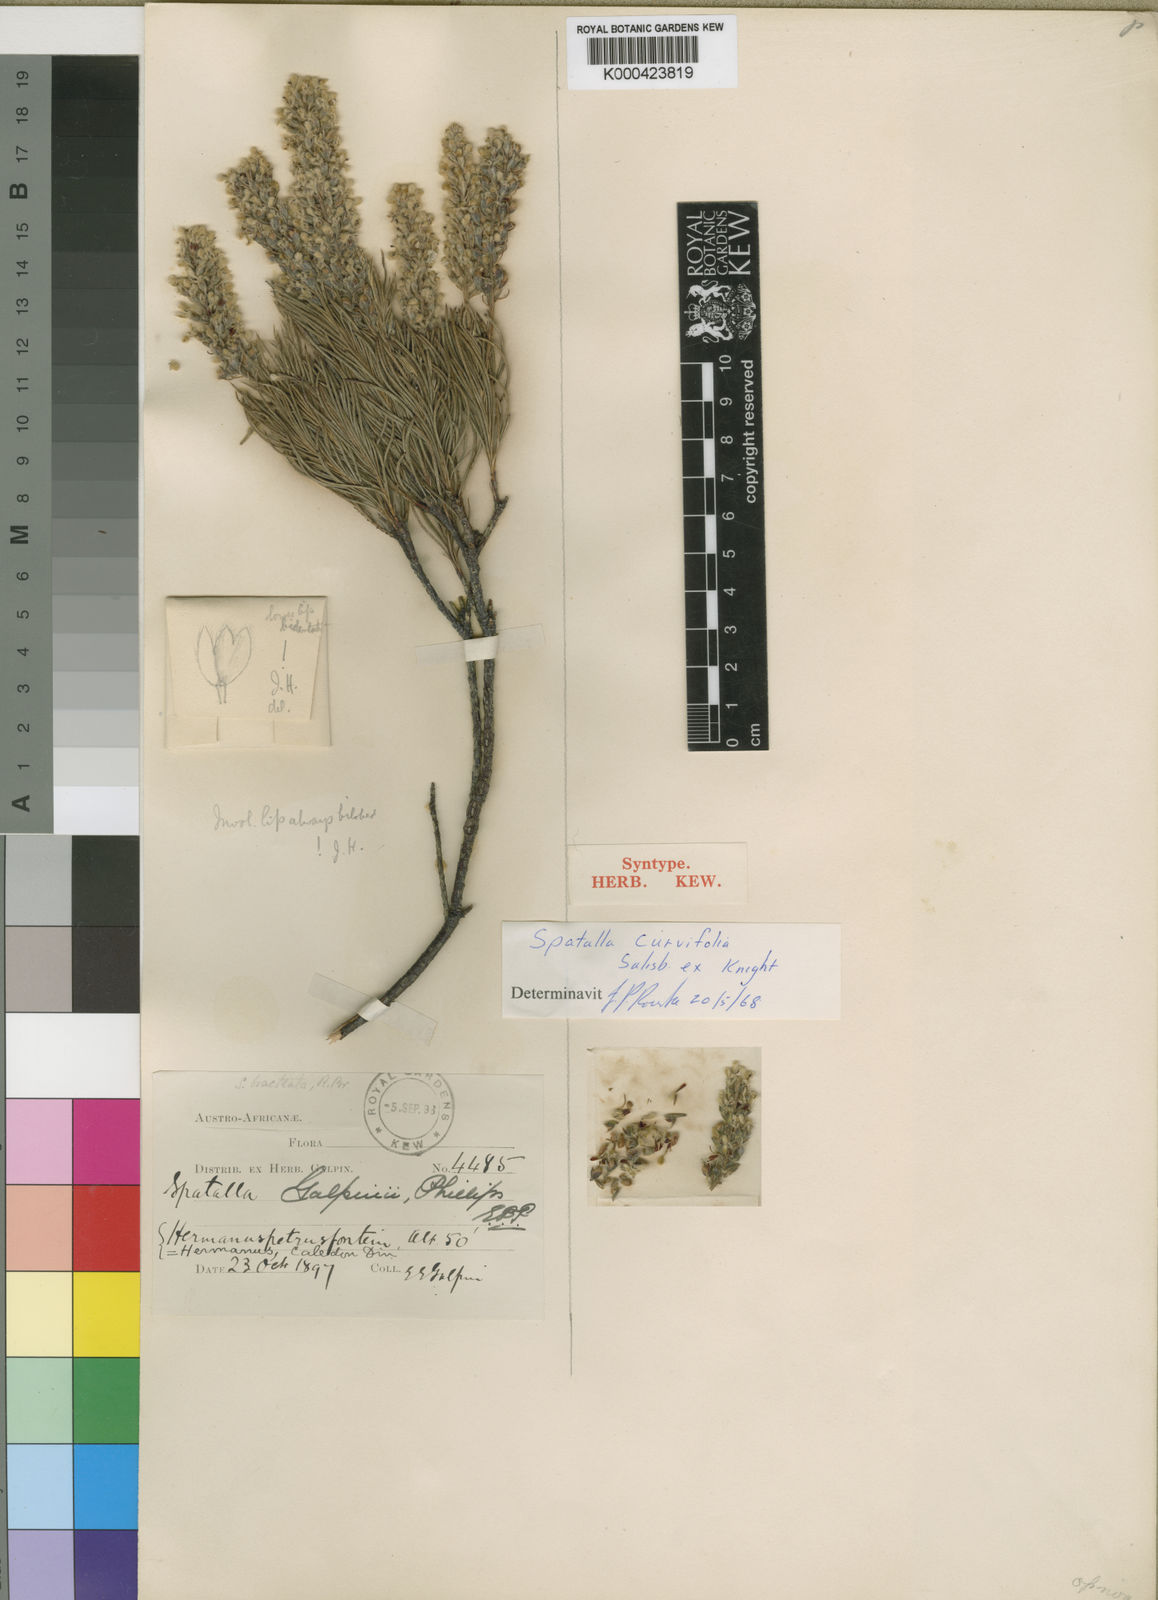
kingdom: Plantae
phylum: Tracheophyta
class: Magnoliopsida
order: Proteales
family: Proteaceae
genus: Spatalla
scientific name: Spatalla curvifolia
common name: White-stalked spoon
